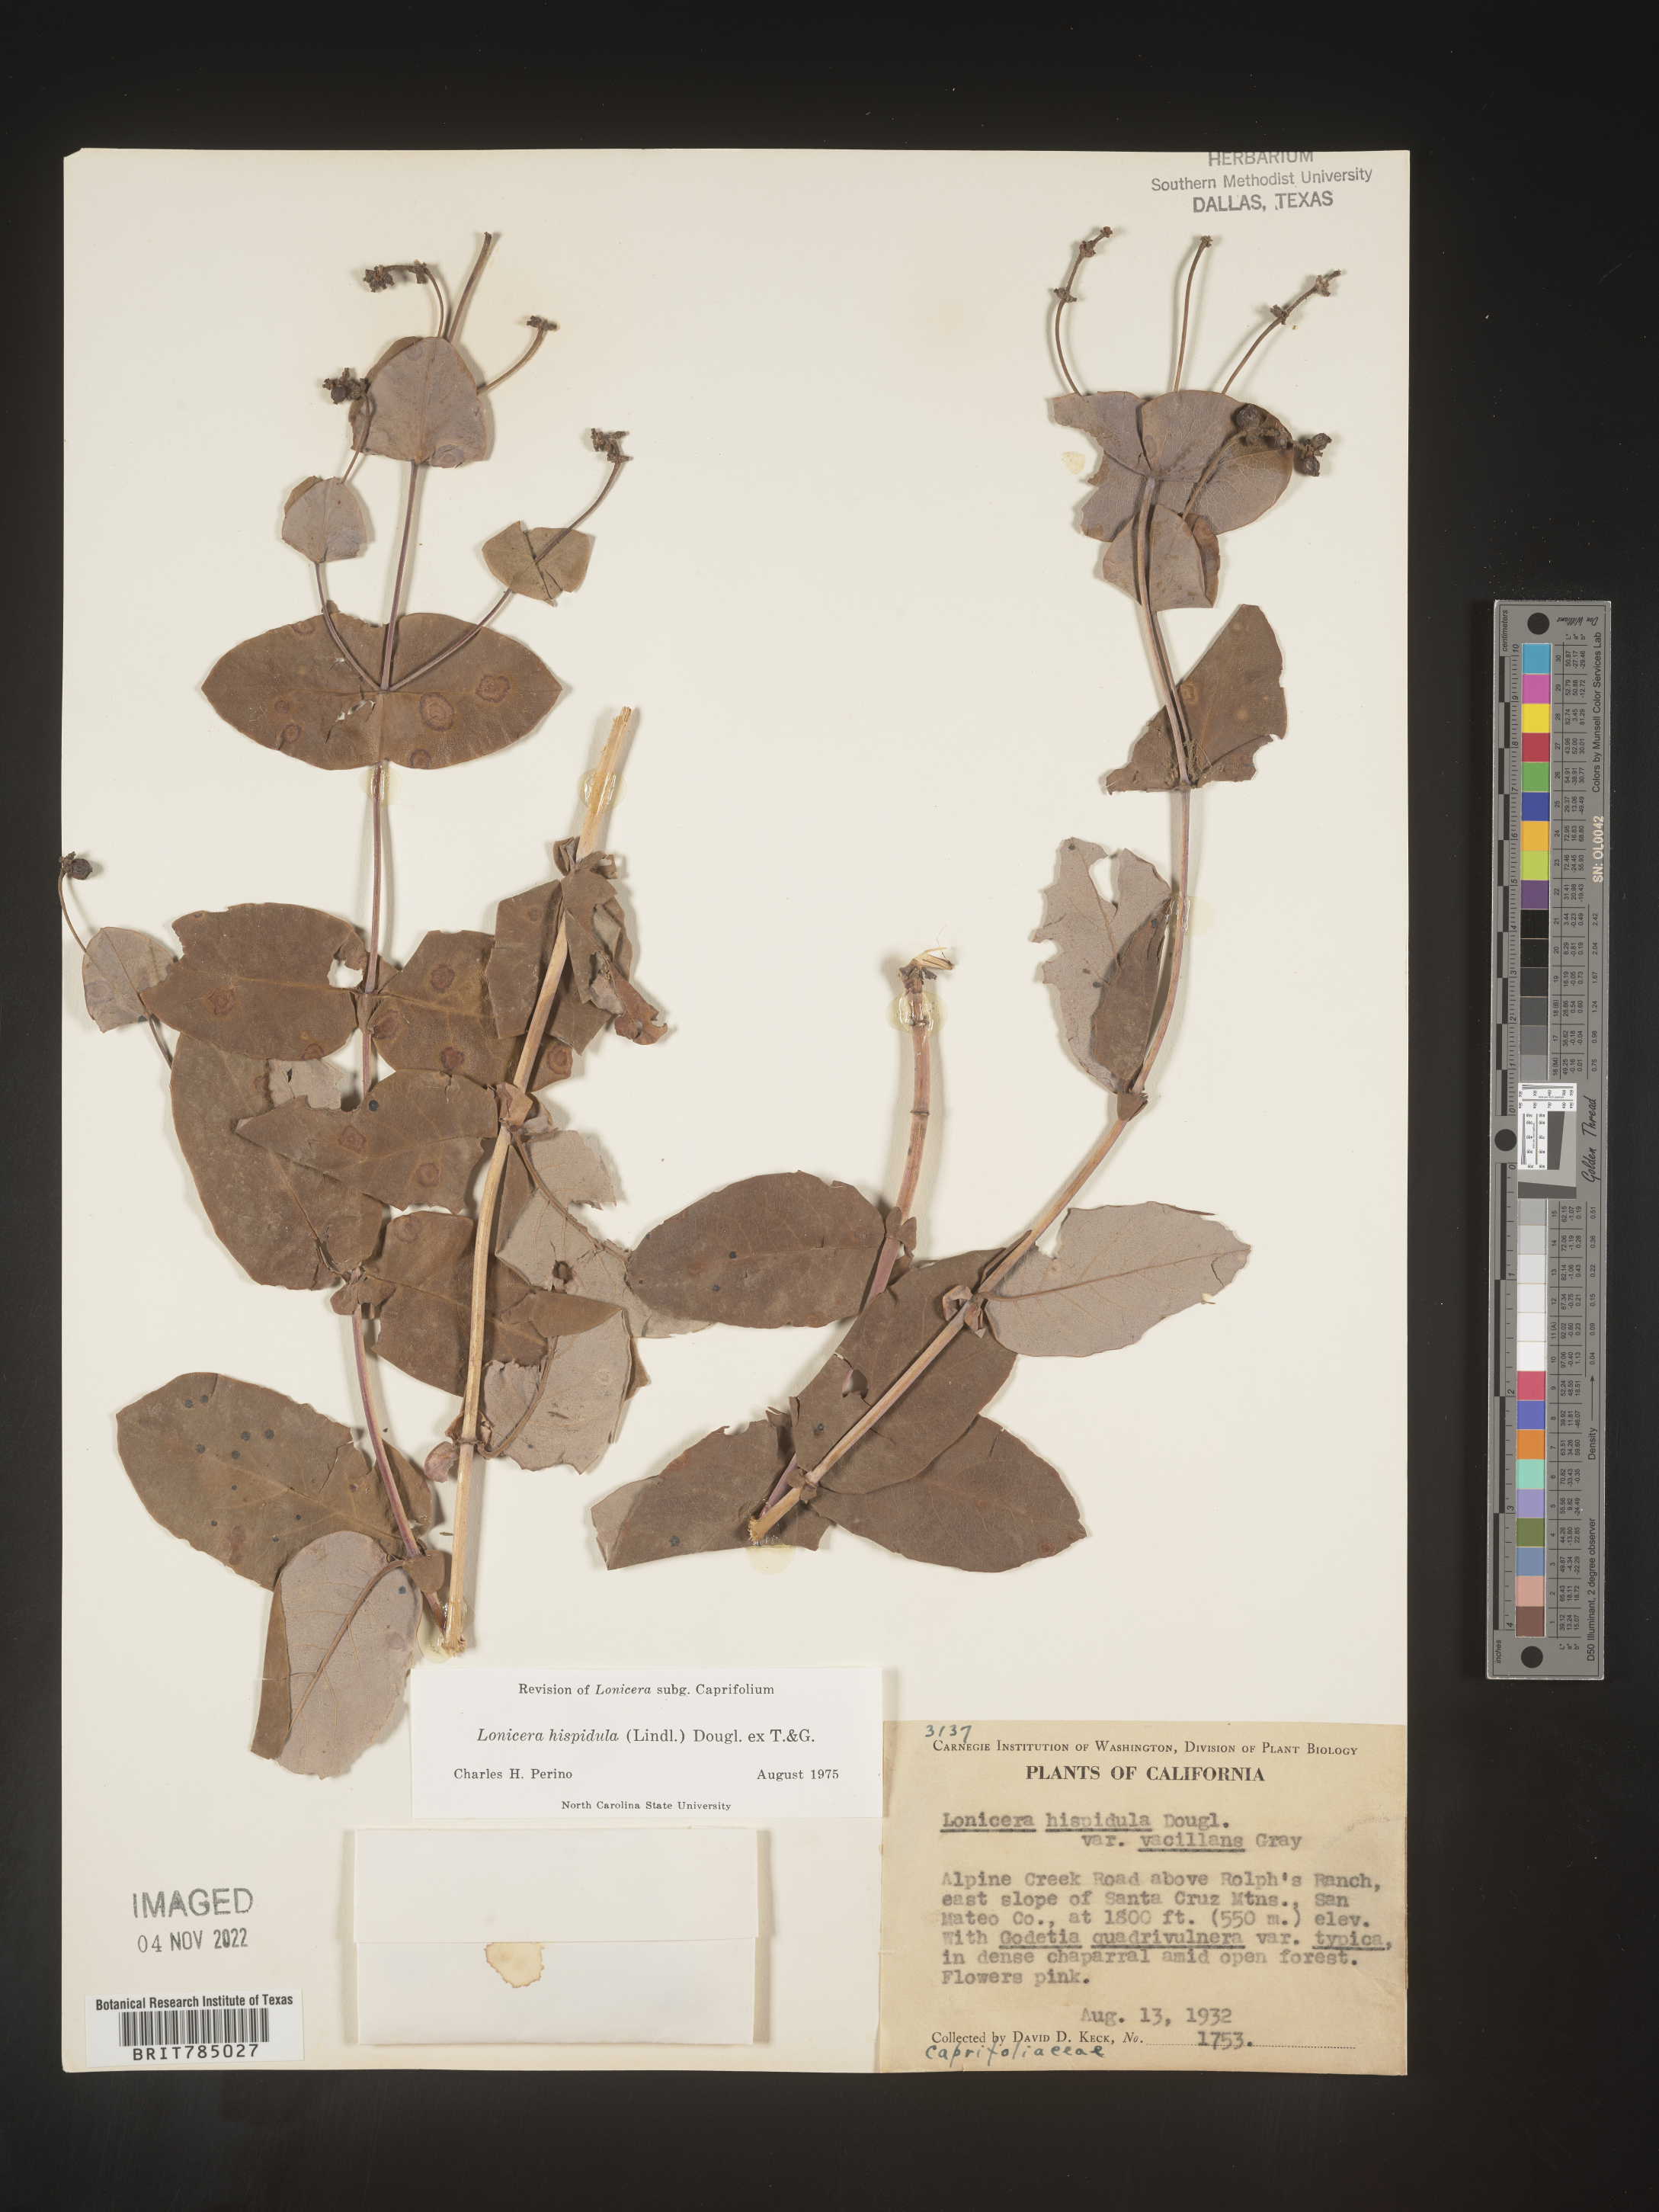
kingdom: Plantae
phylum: Tracheophyta
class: Magnoliopsida
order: Dipsacales
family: Caprifoliaceae
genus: Lonicera
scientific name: Lonicera
